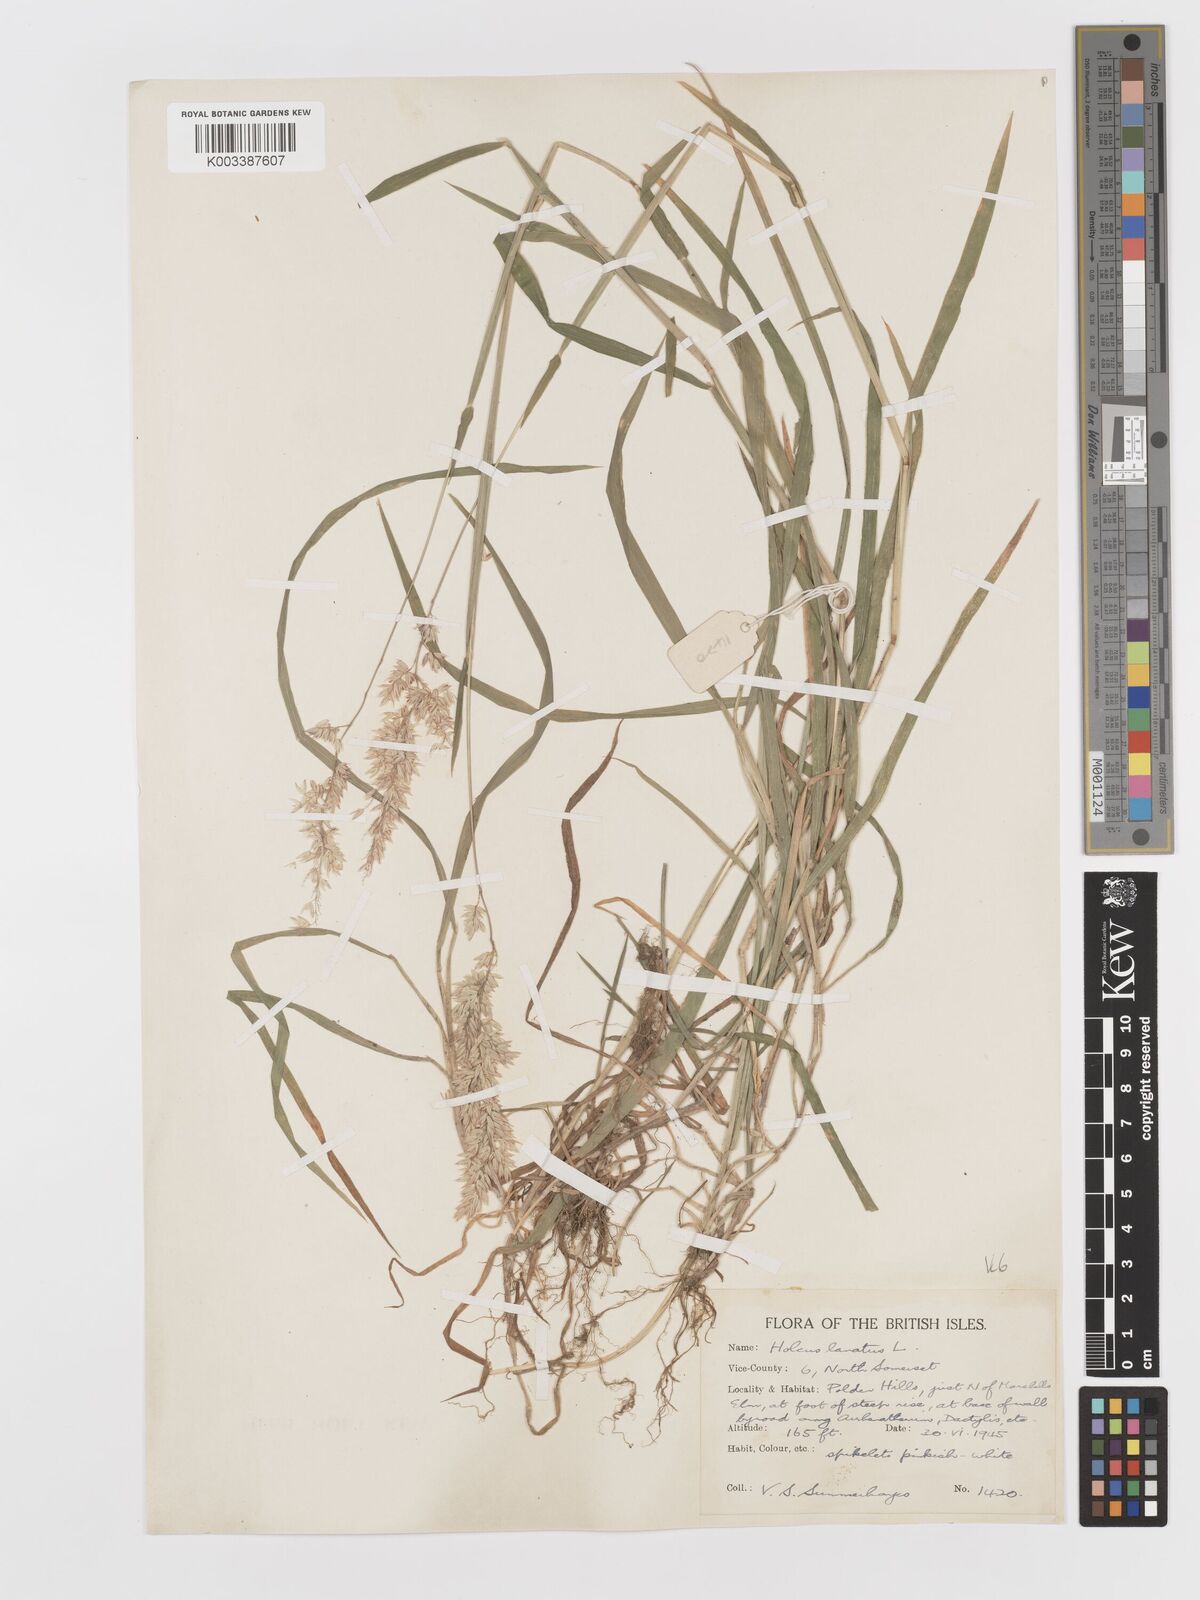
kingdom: Plantae
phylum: Tracheophyta
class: Liliopsida
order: Poales
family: Poaceae
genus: Holcus
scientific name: Holcus lanatus
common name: Yorkshire-fog
